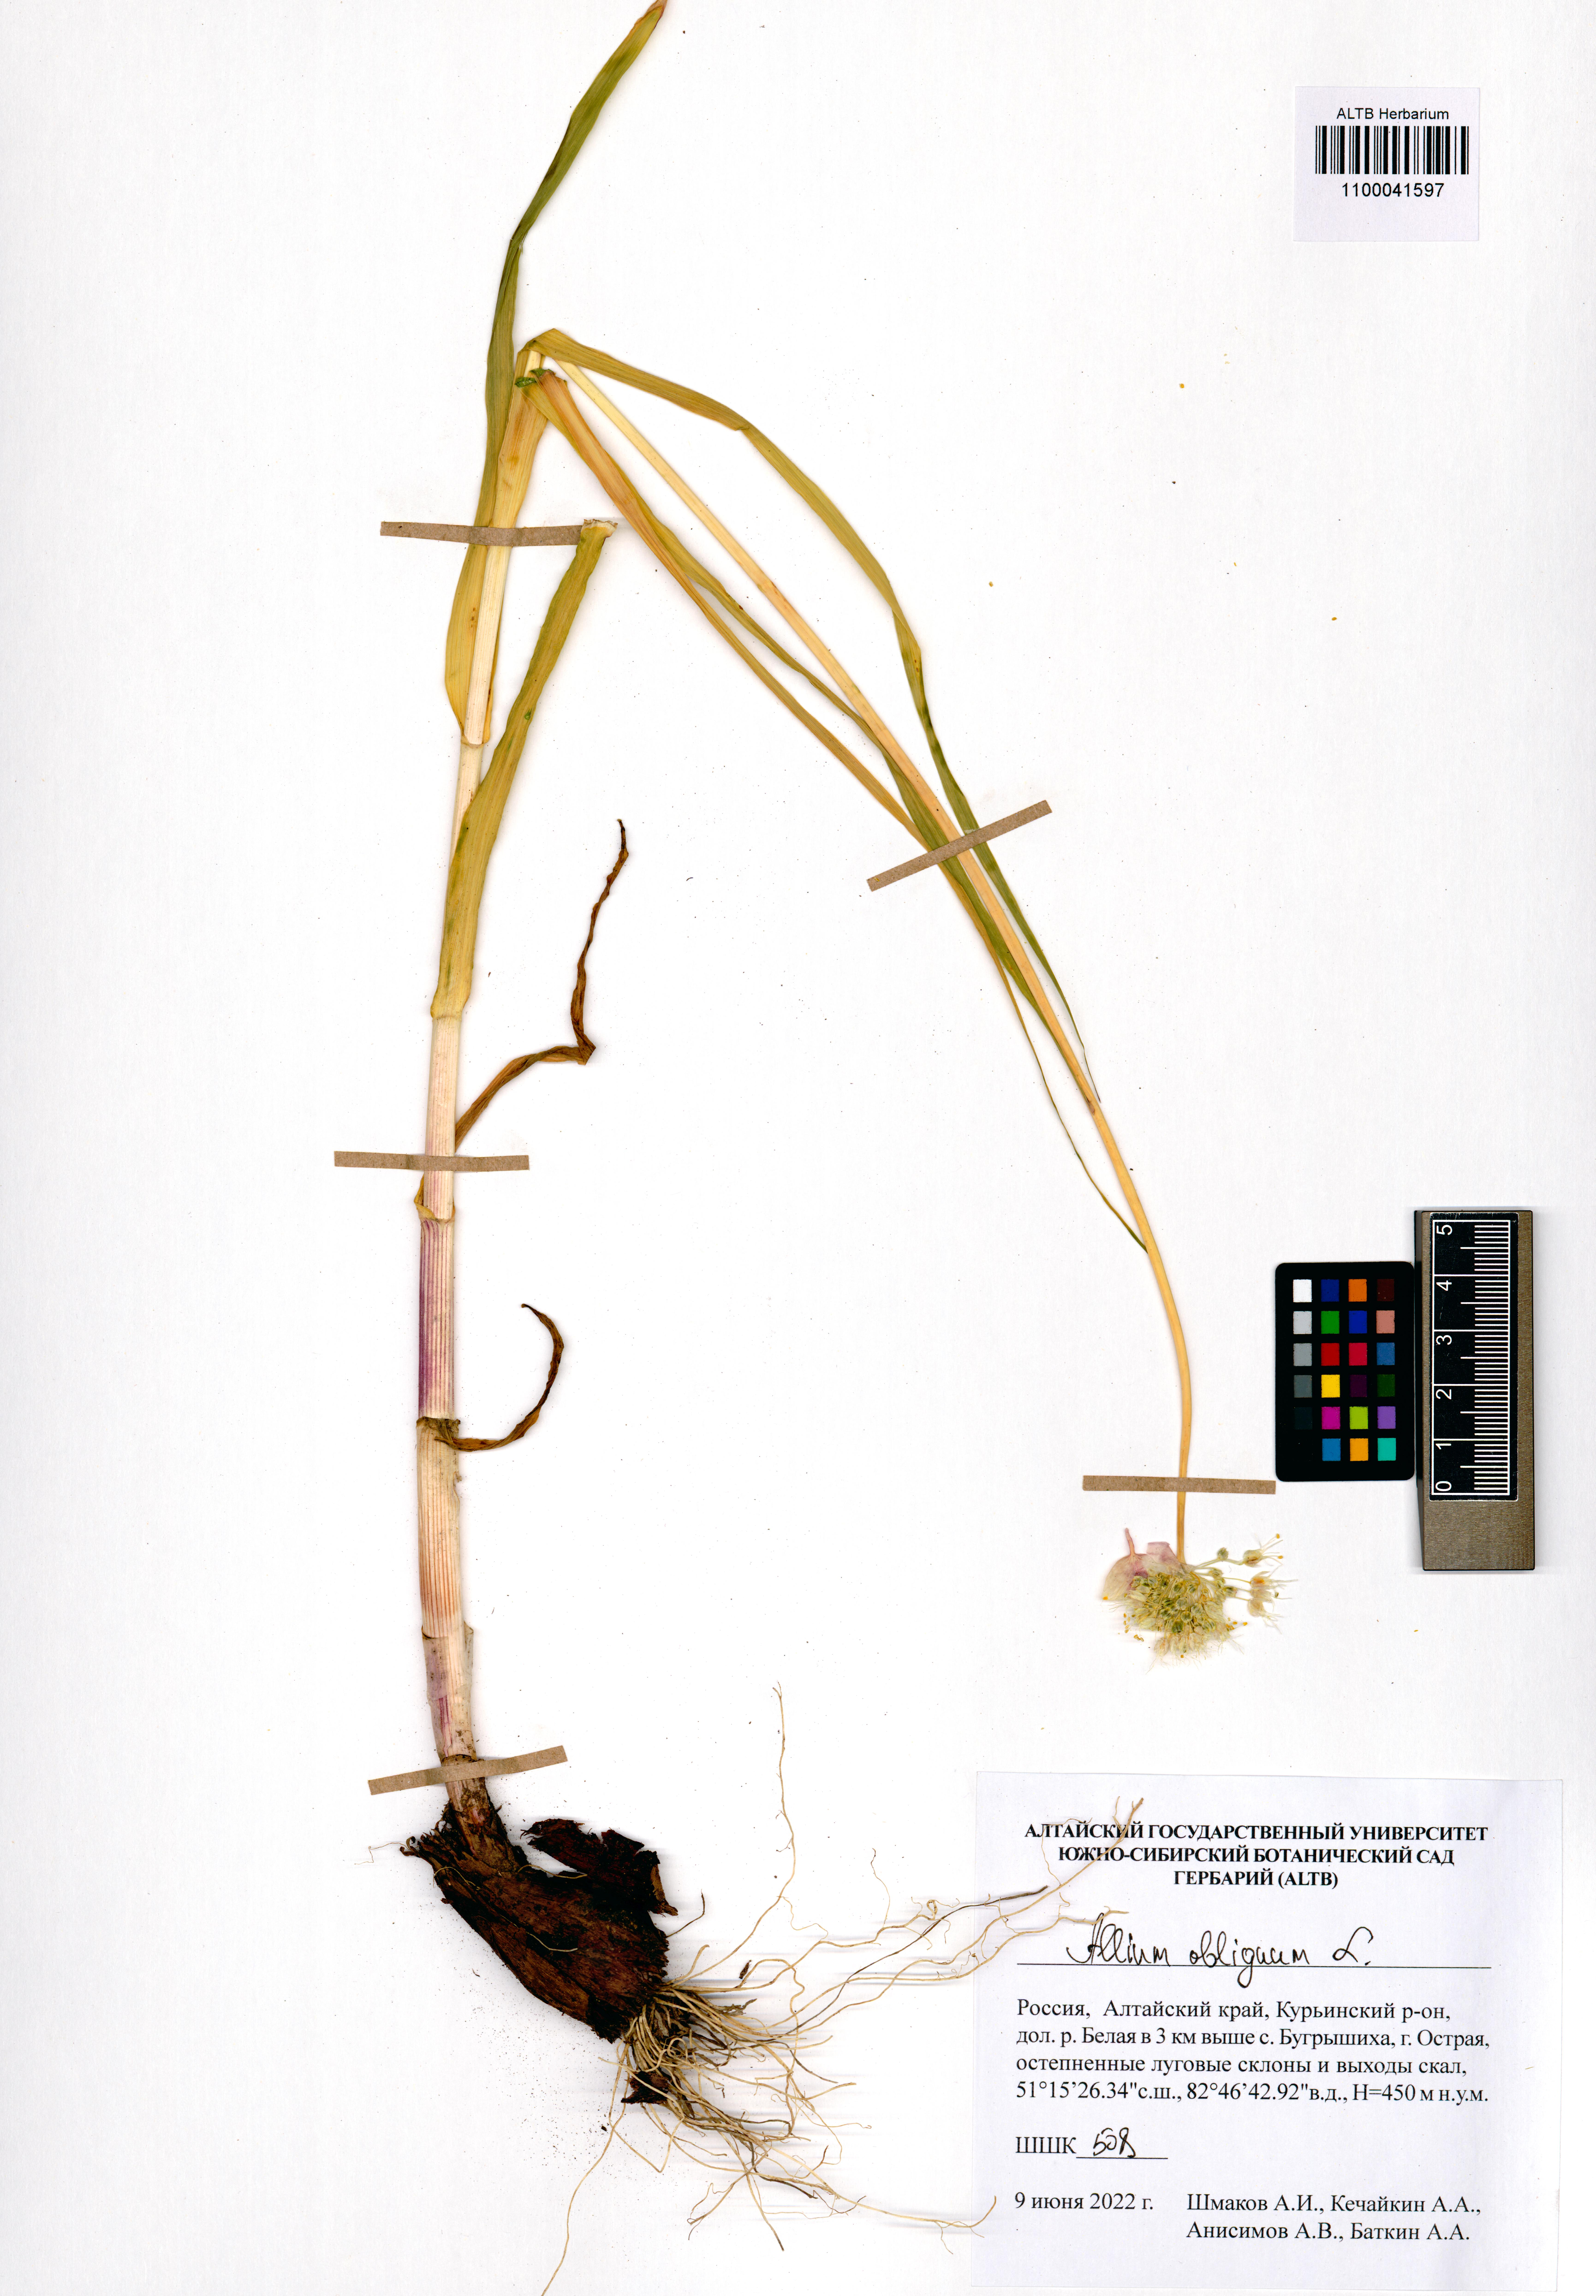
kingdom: Plantae
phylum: Tracheophyta
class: Liliopsida
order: Asparagales
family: Amaryllidaceae
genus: Allium
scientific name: Allium obliquum
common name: Oblique onion
